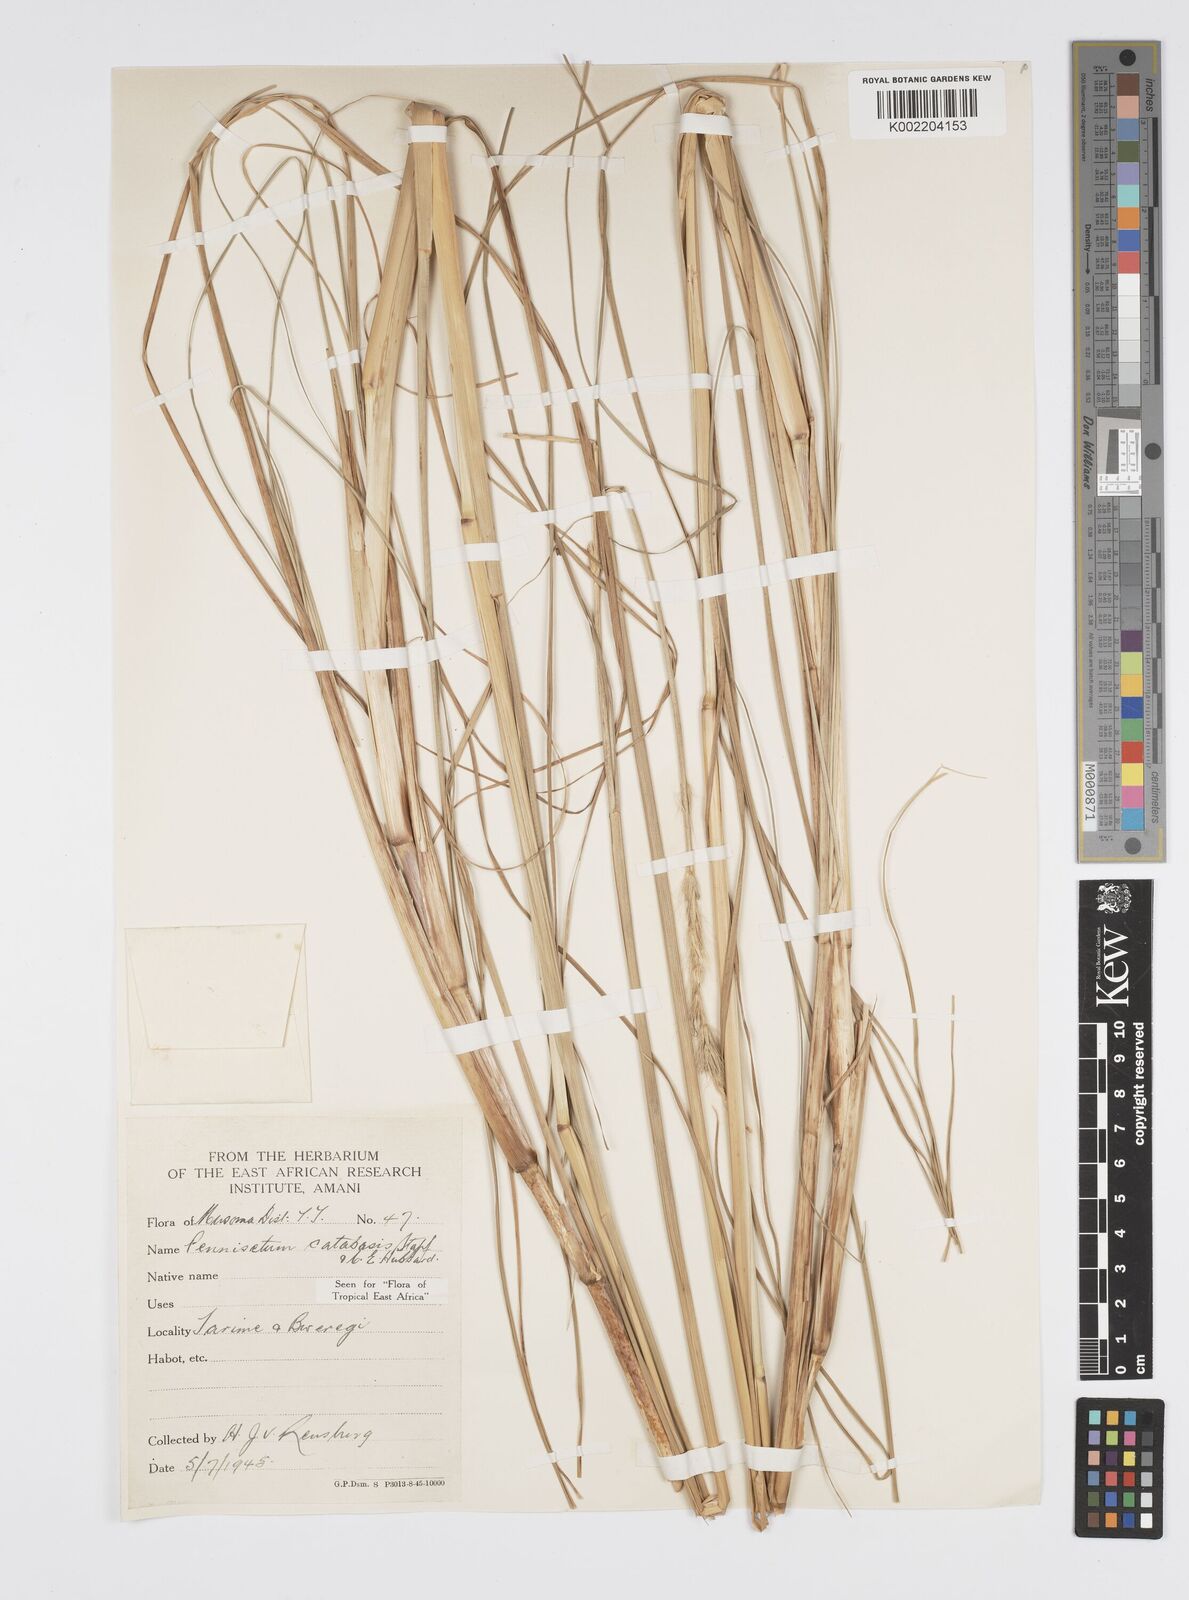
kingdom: Plantae
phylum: Tracheophyta
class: Liliopsida
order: Poales
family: Poaceae
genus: Cenchrus
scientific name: Cenchrus hohenackeri
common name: Moya grass
